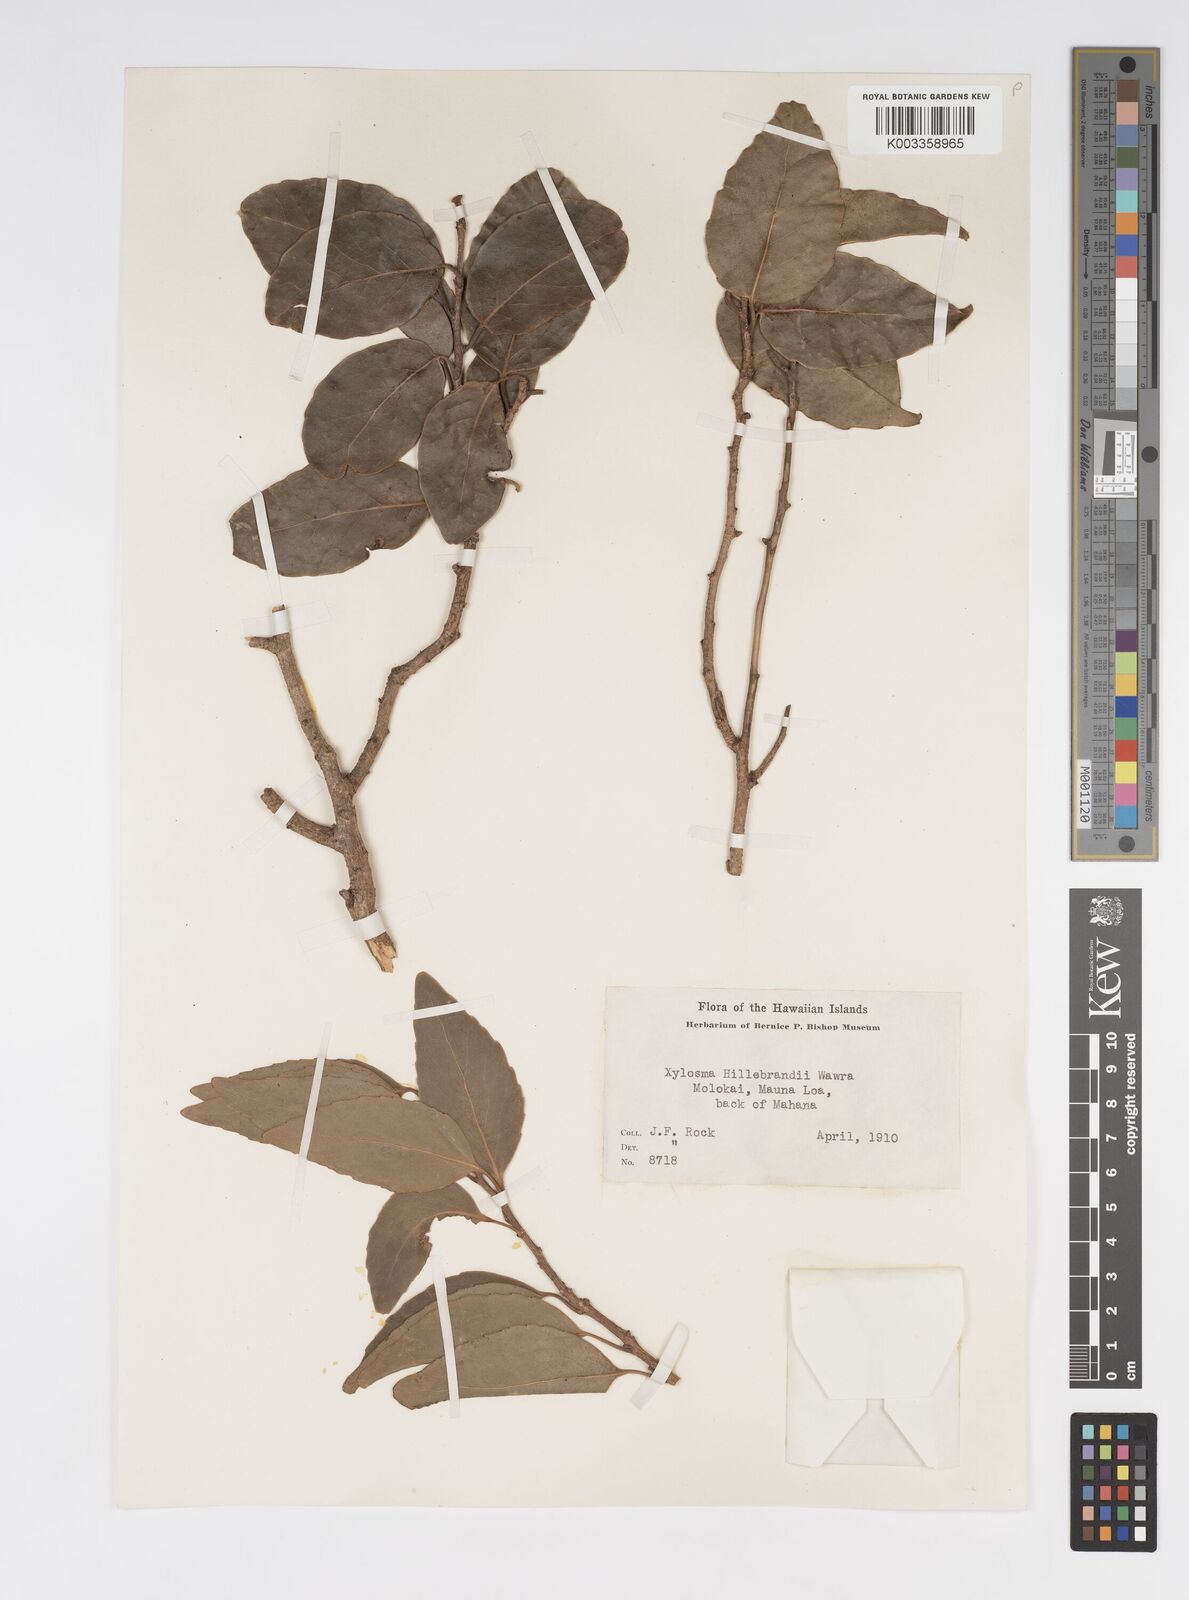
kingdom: Plantae
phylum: Tracheophyta
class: Magnoliopsida
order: Malpighiales
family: Salicaceae
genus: Xylosma
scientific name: Xylosma hawaiense
